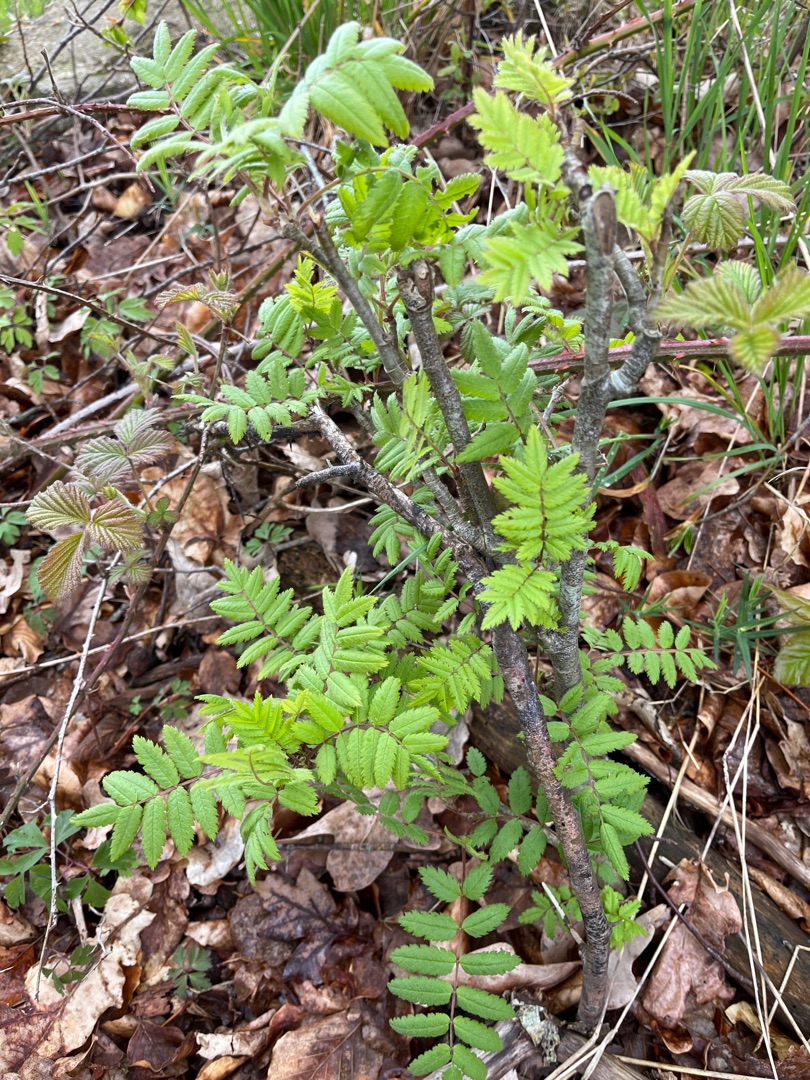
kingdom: Plantae
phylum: Tracheophyta
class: Magnoliopsida
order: Rosales
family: Rosaceae
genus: Sorbus
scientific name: Sorbus aucuparia
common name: Almindelig røn
